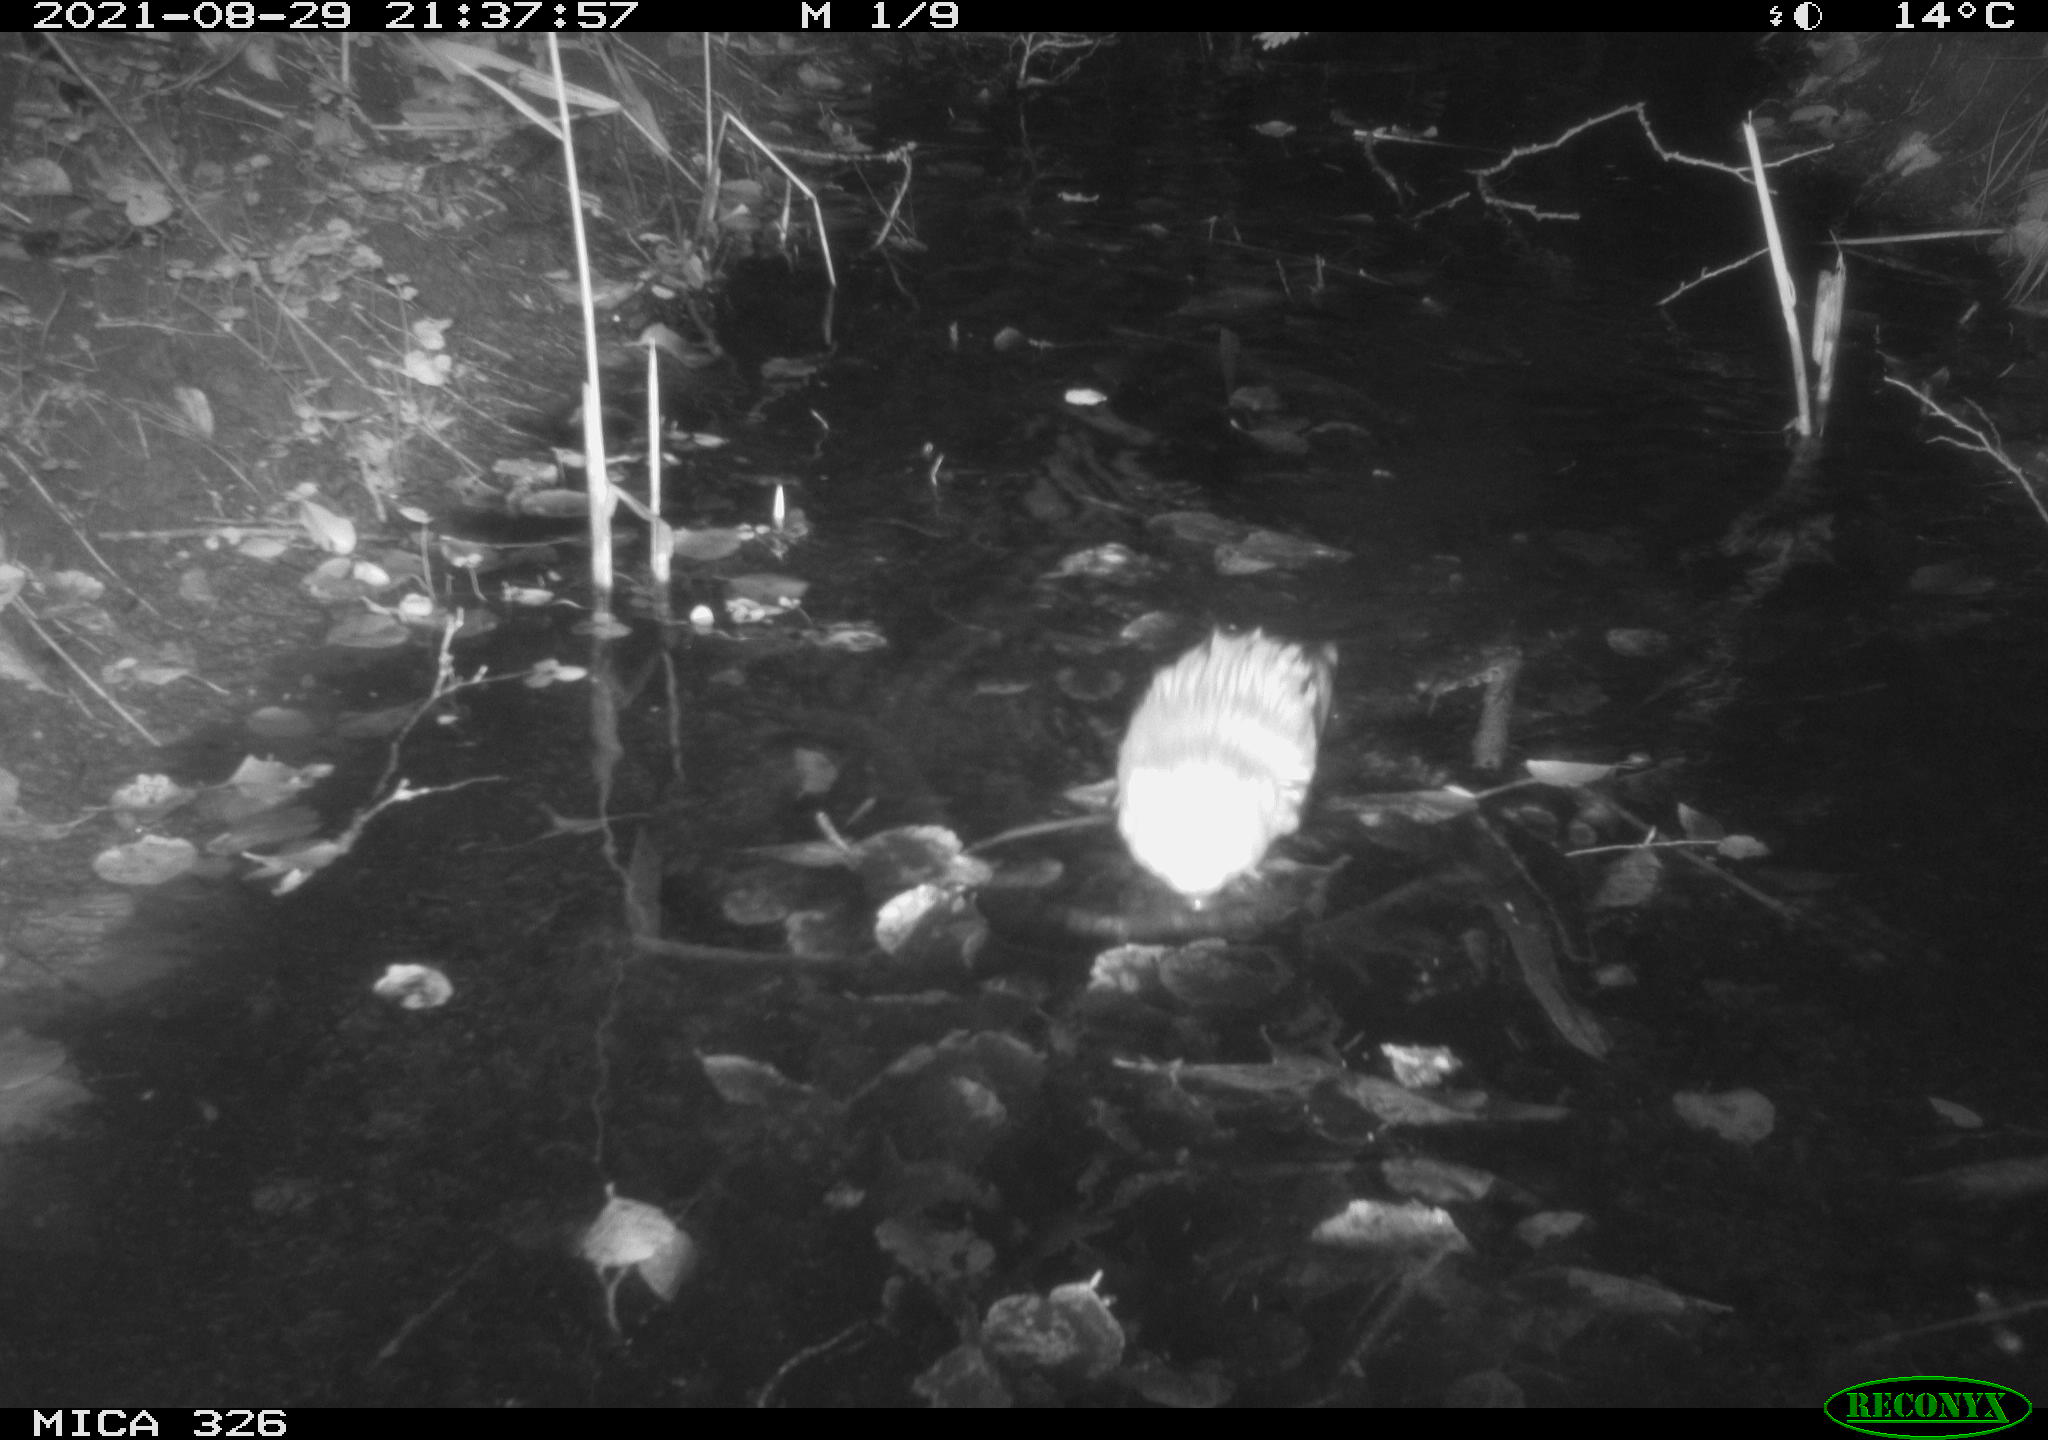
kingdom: Animalia
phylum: Chordata
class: Mammalia
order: Rodentia
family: Cricetidae
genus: Ondatra
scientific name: Ondatra zibethicus
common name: Muskrat
